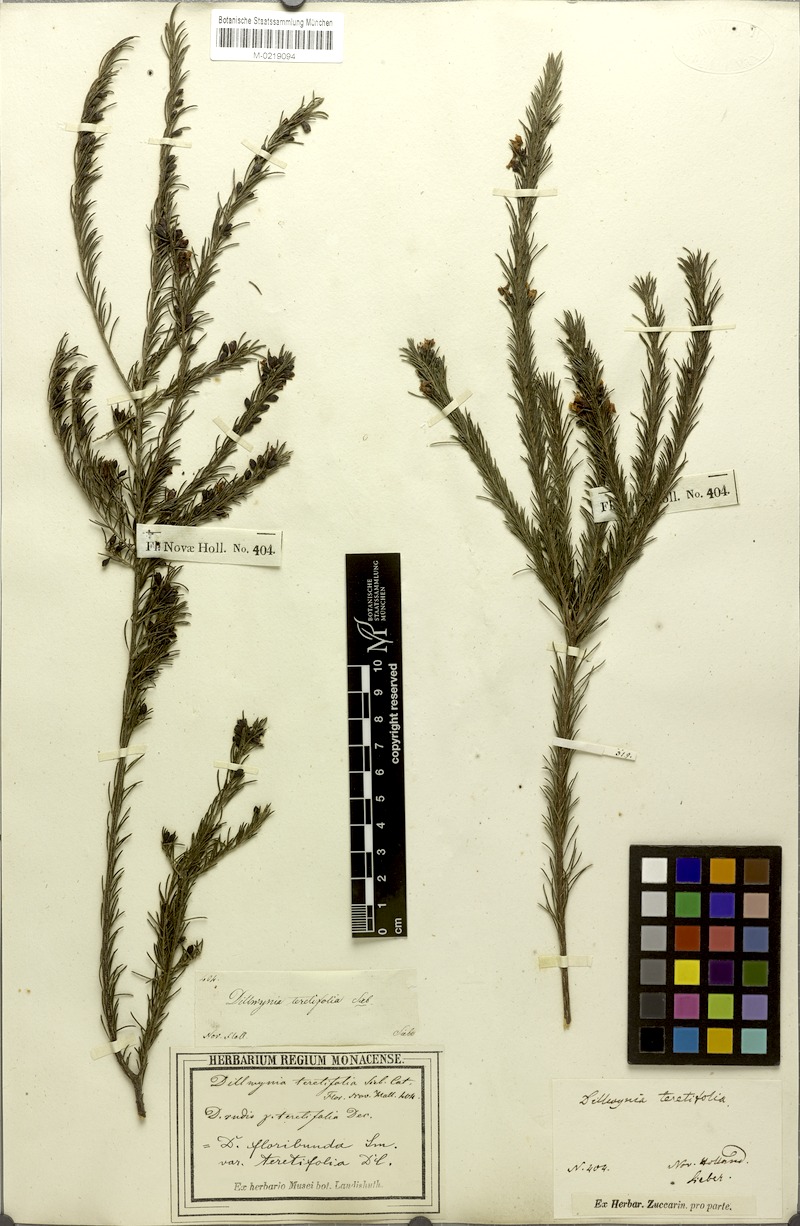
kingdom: Plantae
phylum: Tracheophyta
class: Magnoliopsida
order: Fabales
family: Fabaceae
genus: Dillwynia
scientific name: Dillwynia floribunda
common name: Eggs-and-bacon
